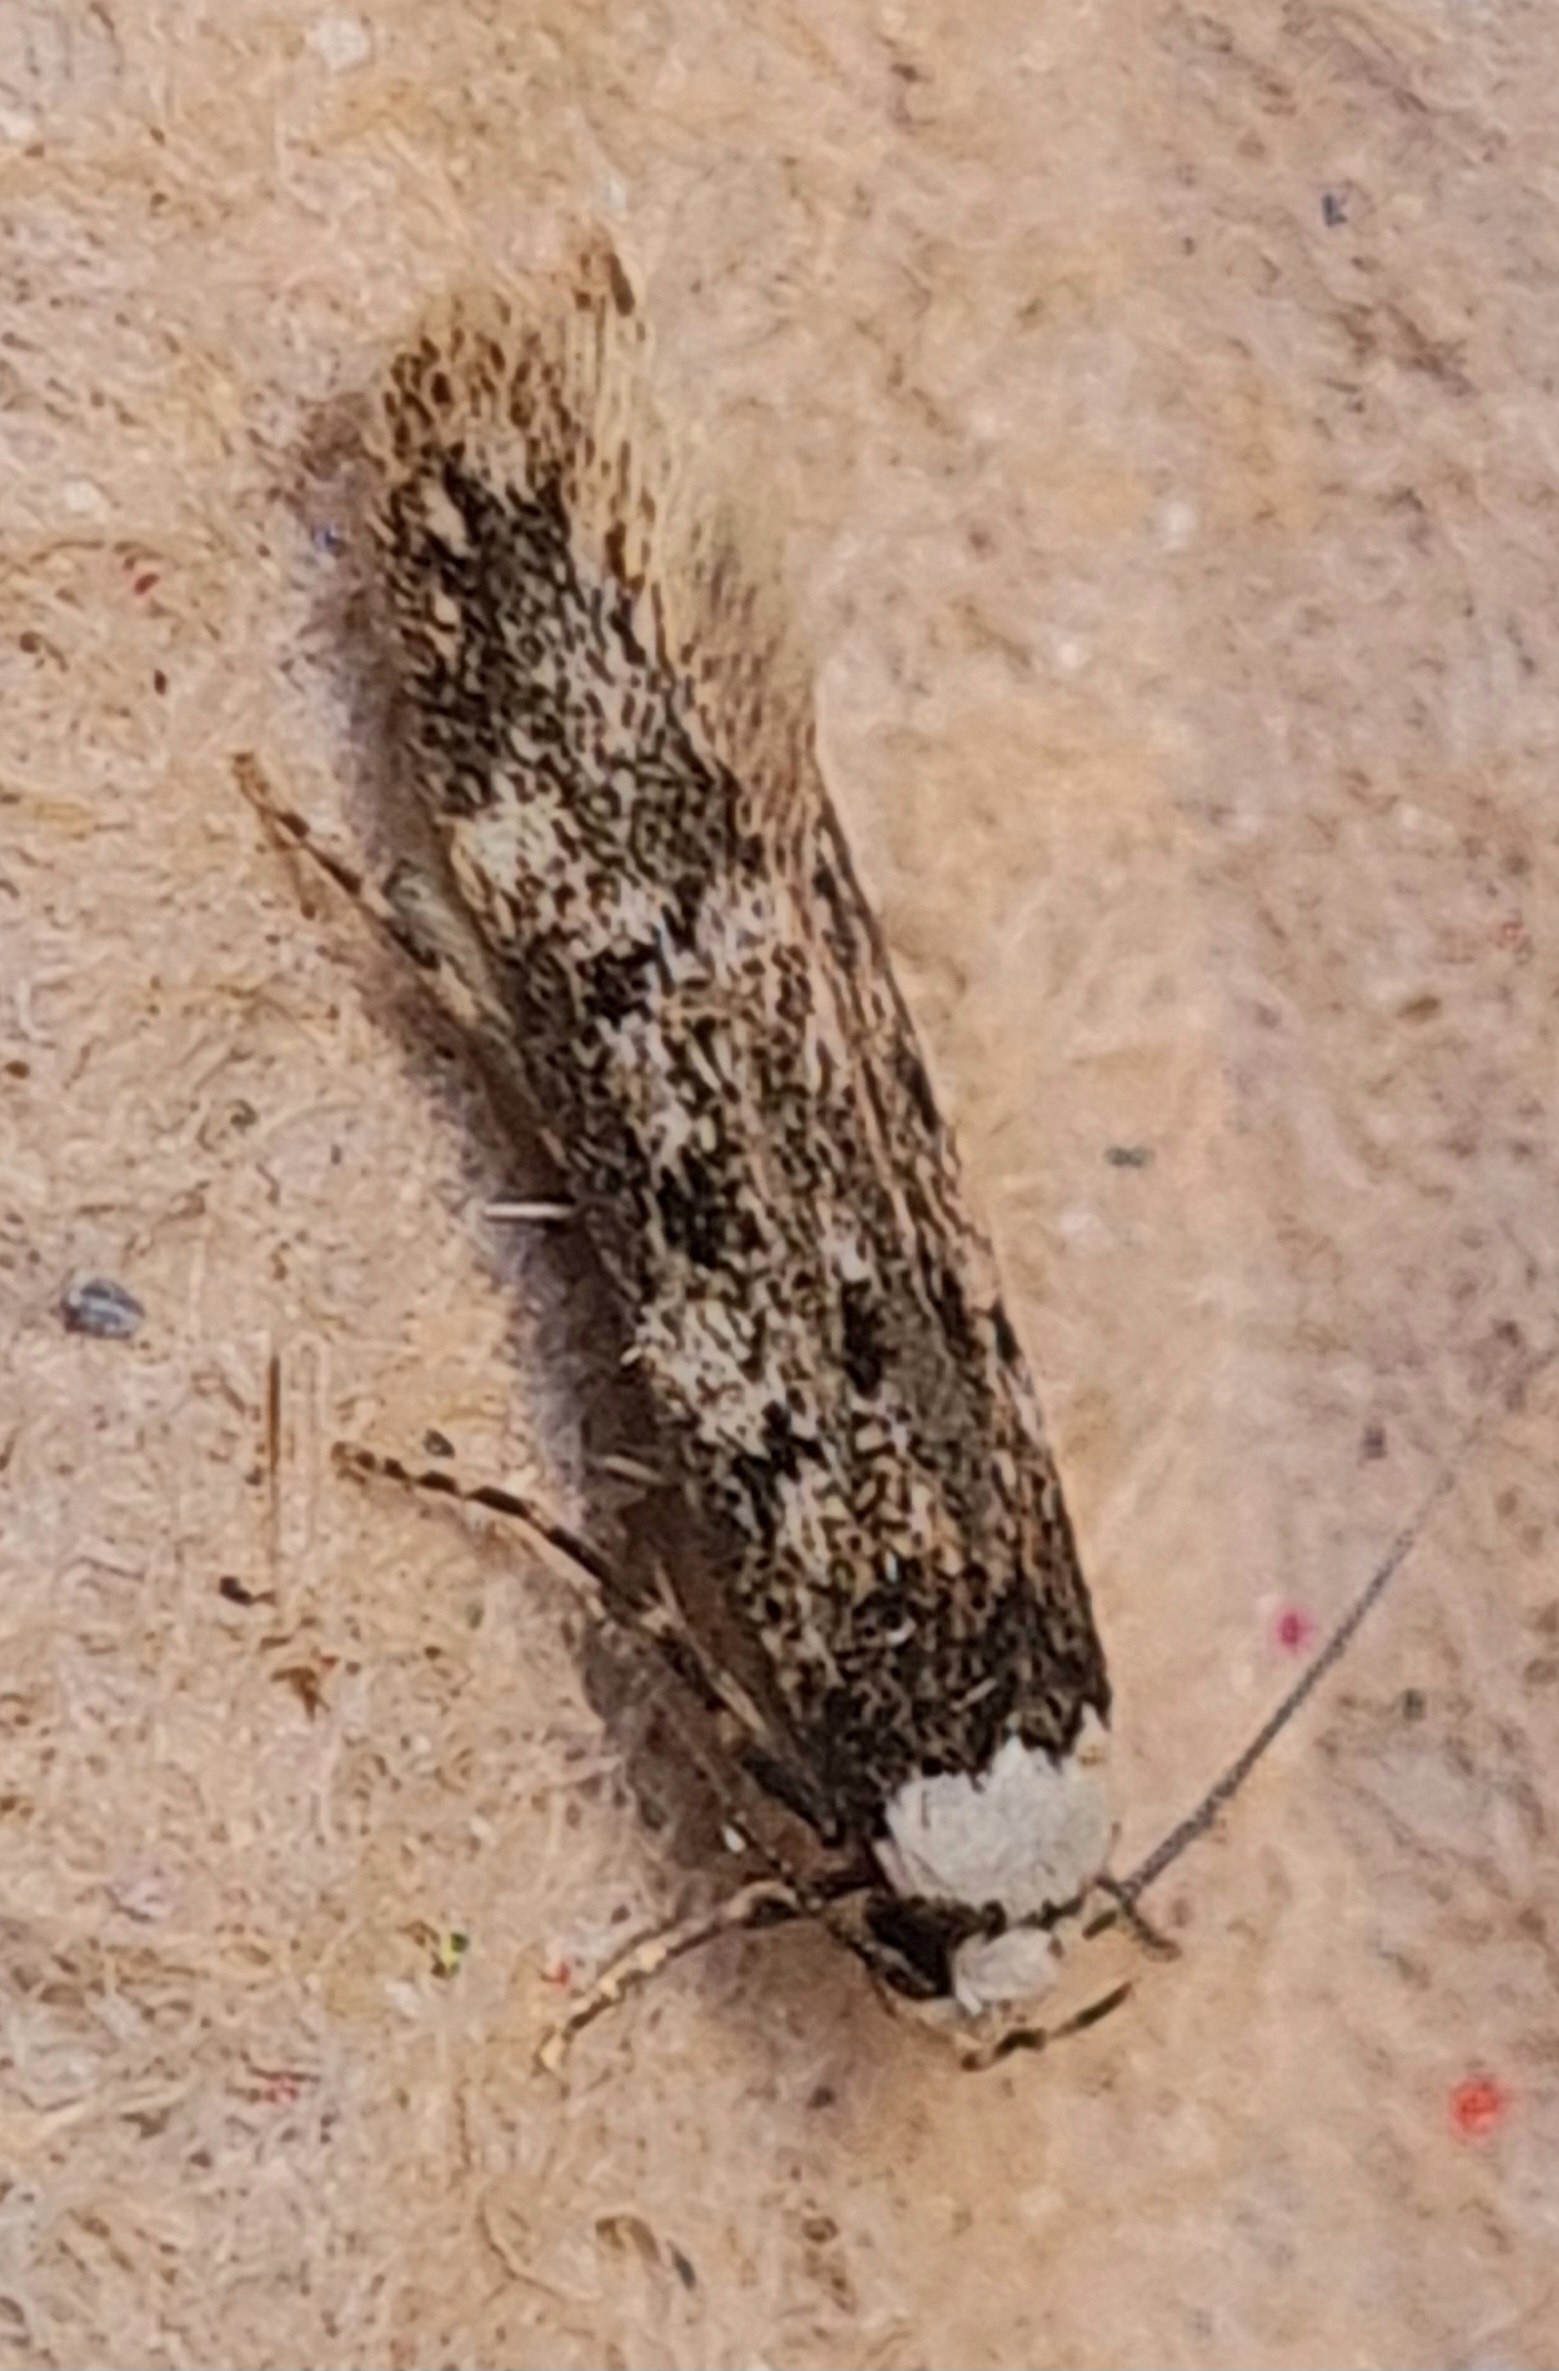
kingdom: Animalia
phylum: Arthropoda
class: Insecta
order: Lepidoptera
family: Oecophoridae
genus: Endrosis
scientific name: Endrosis sarcitrella
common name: Klistermøl
